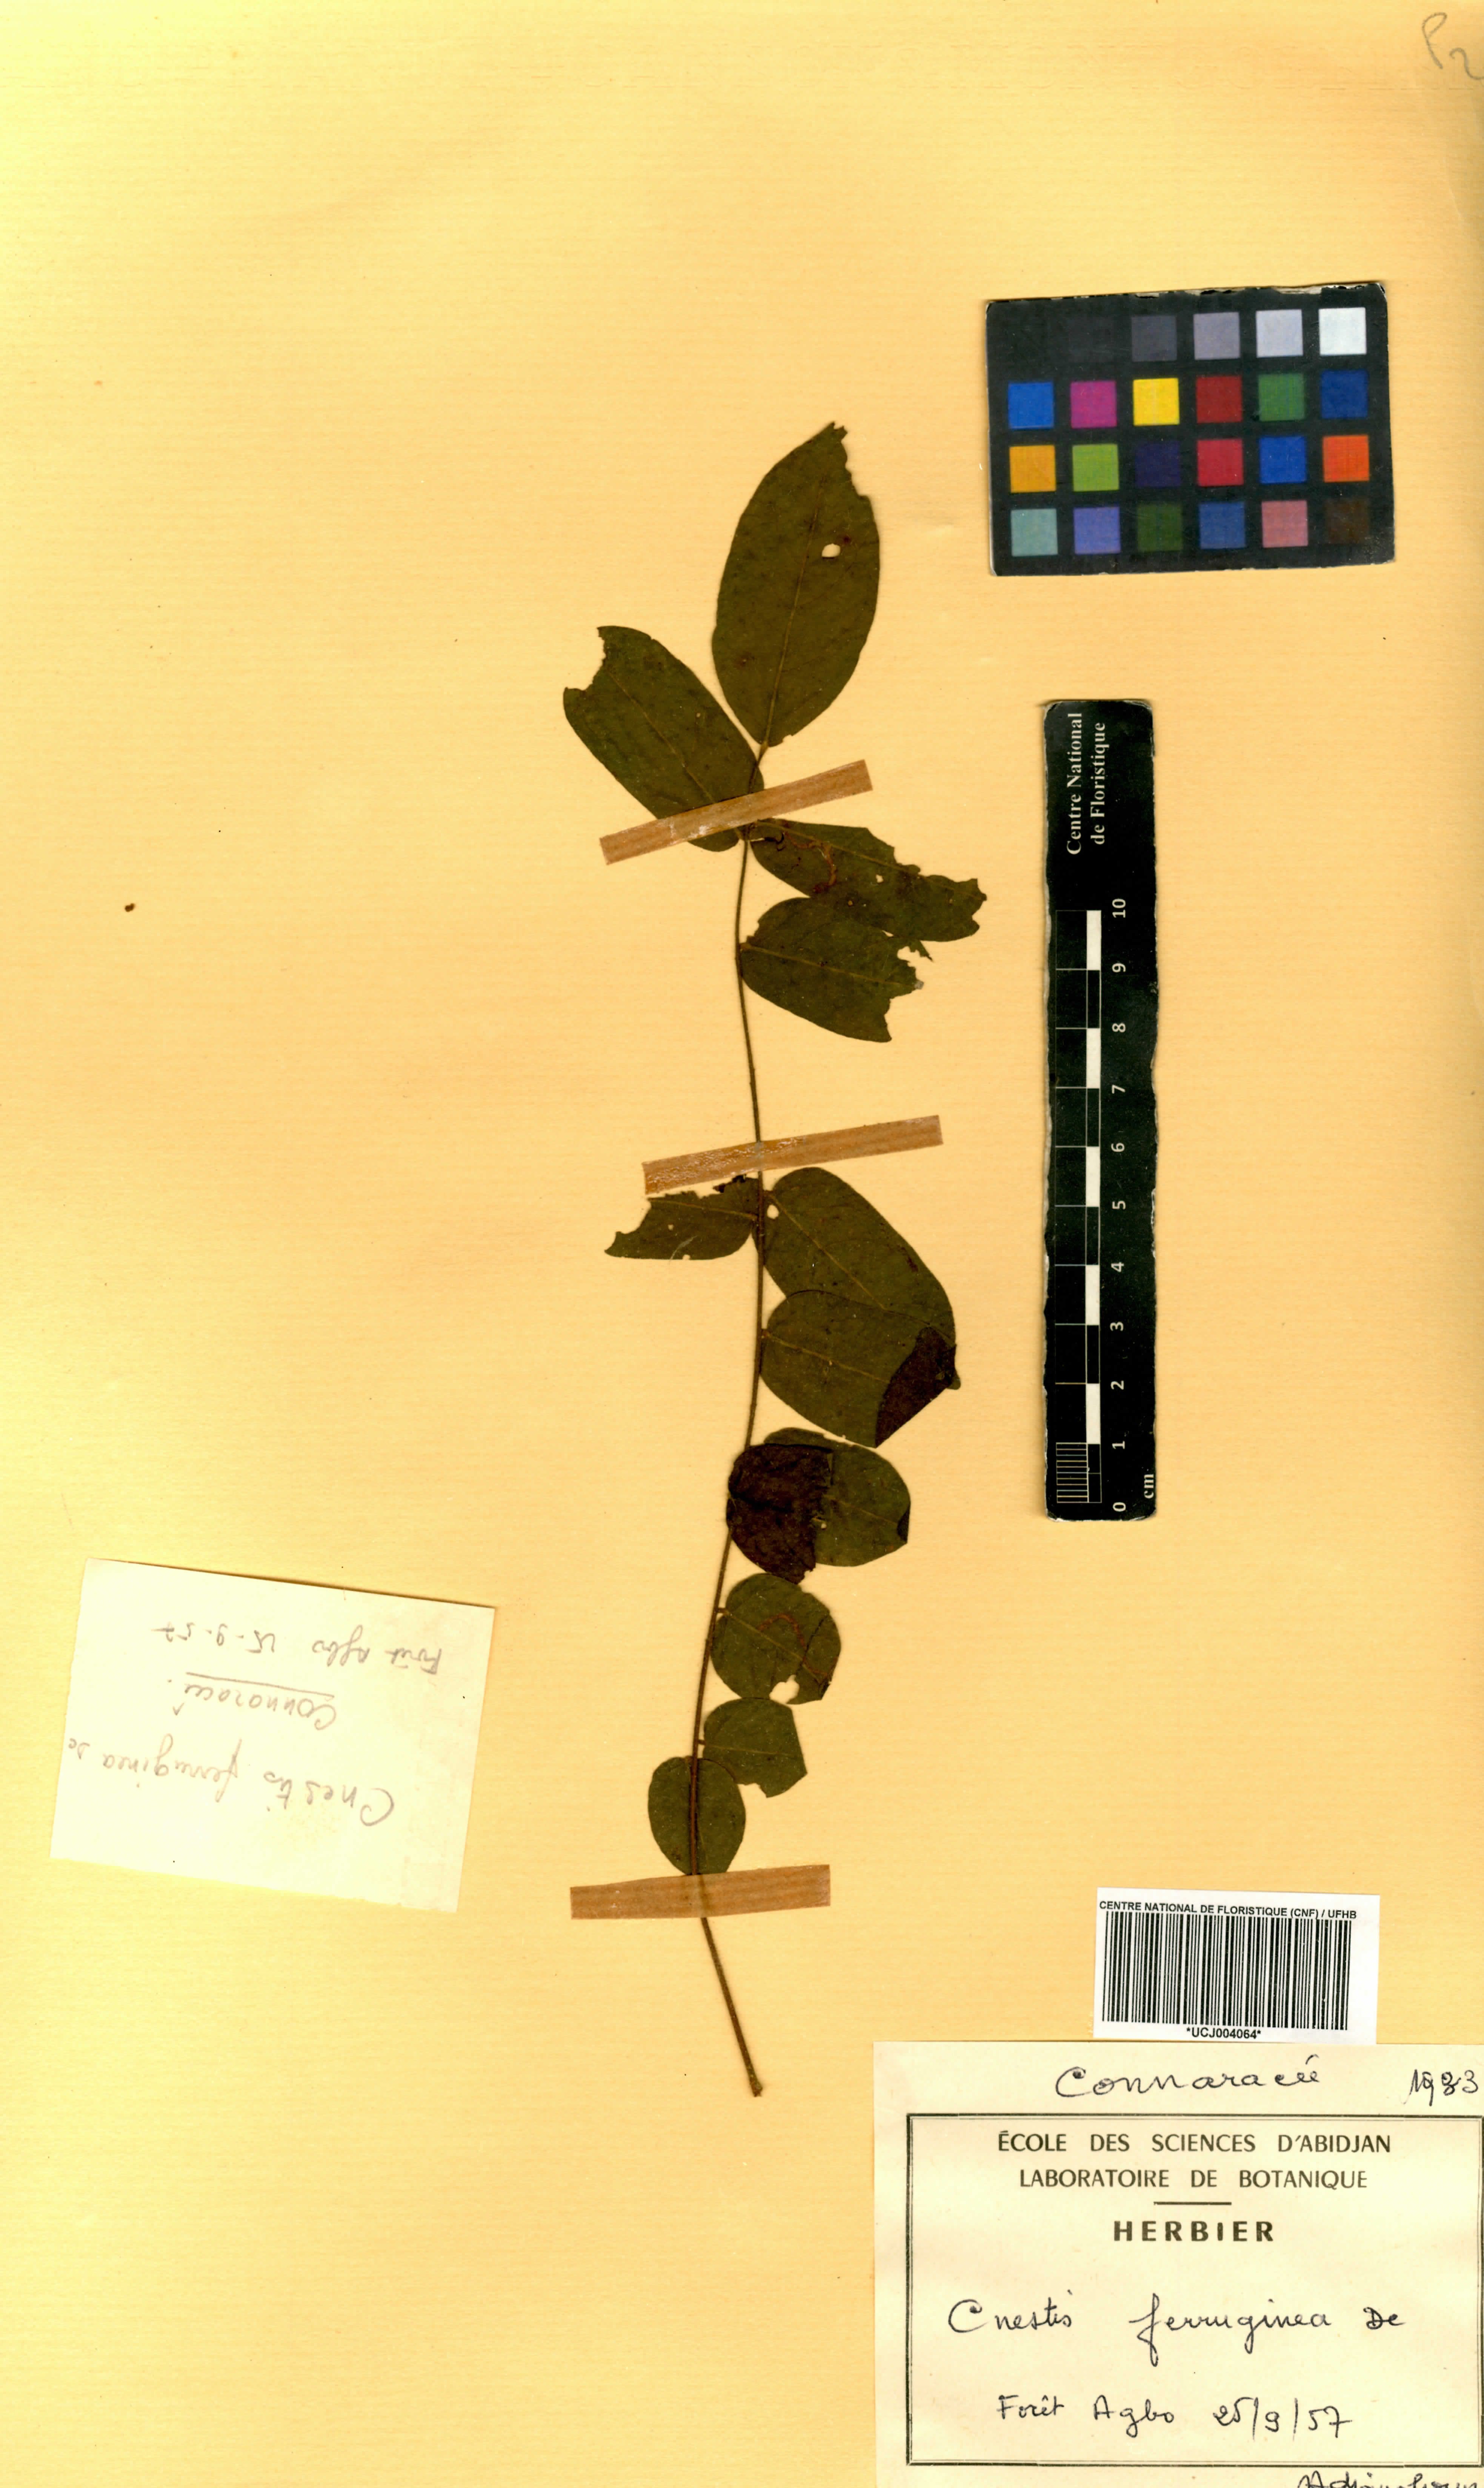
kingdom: Plantae
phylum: Tracheophyta
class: Magnoliopsida
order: Oxalidales
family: Connaraceae
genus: Cnestis
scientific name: Cnestis ferruginea
